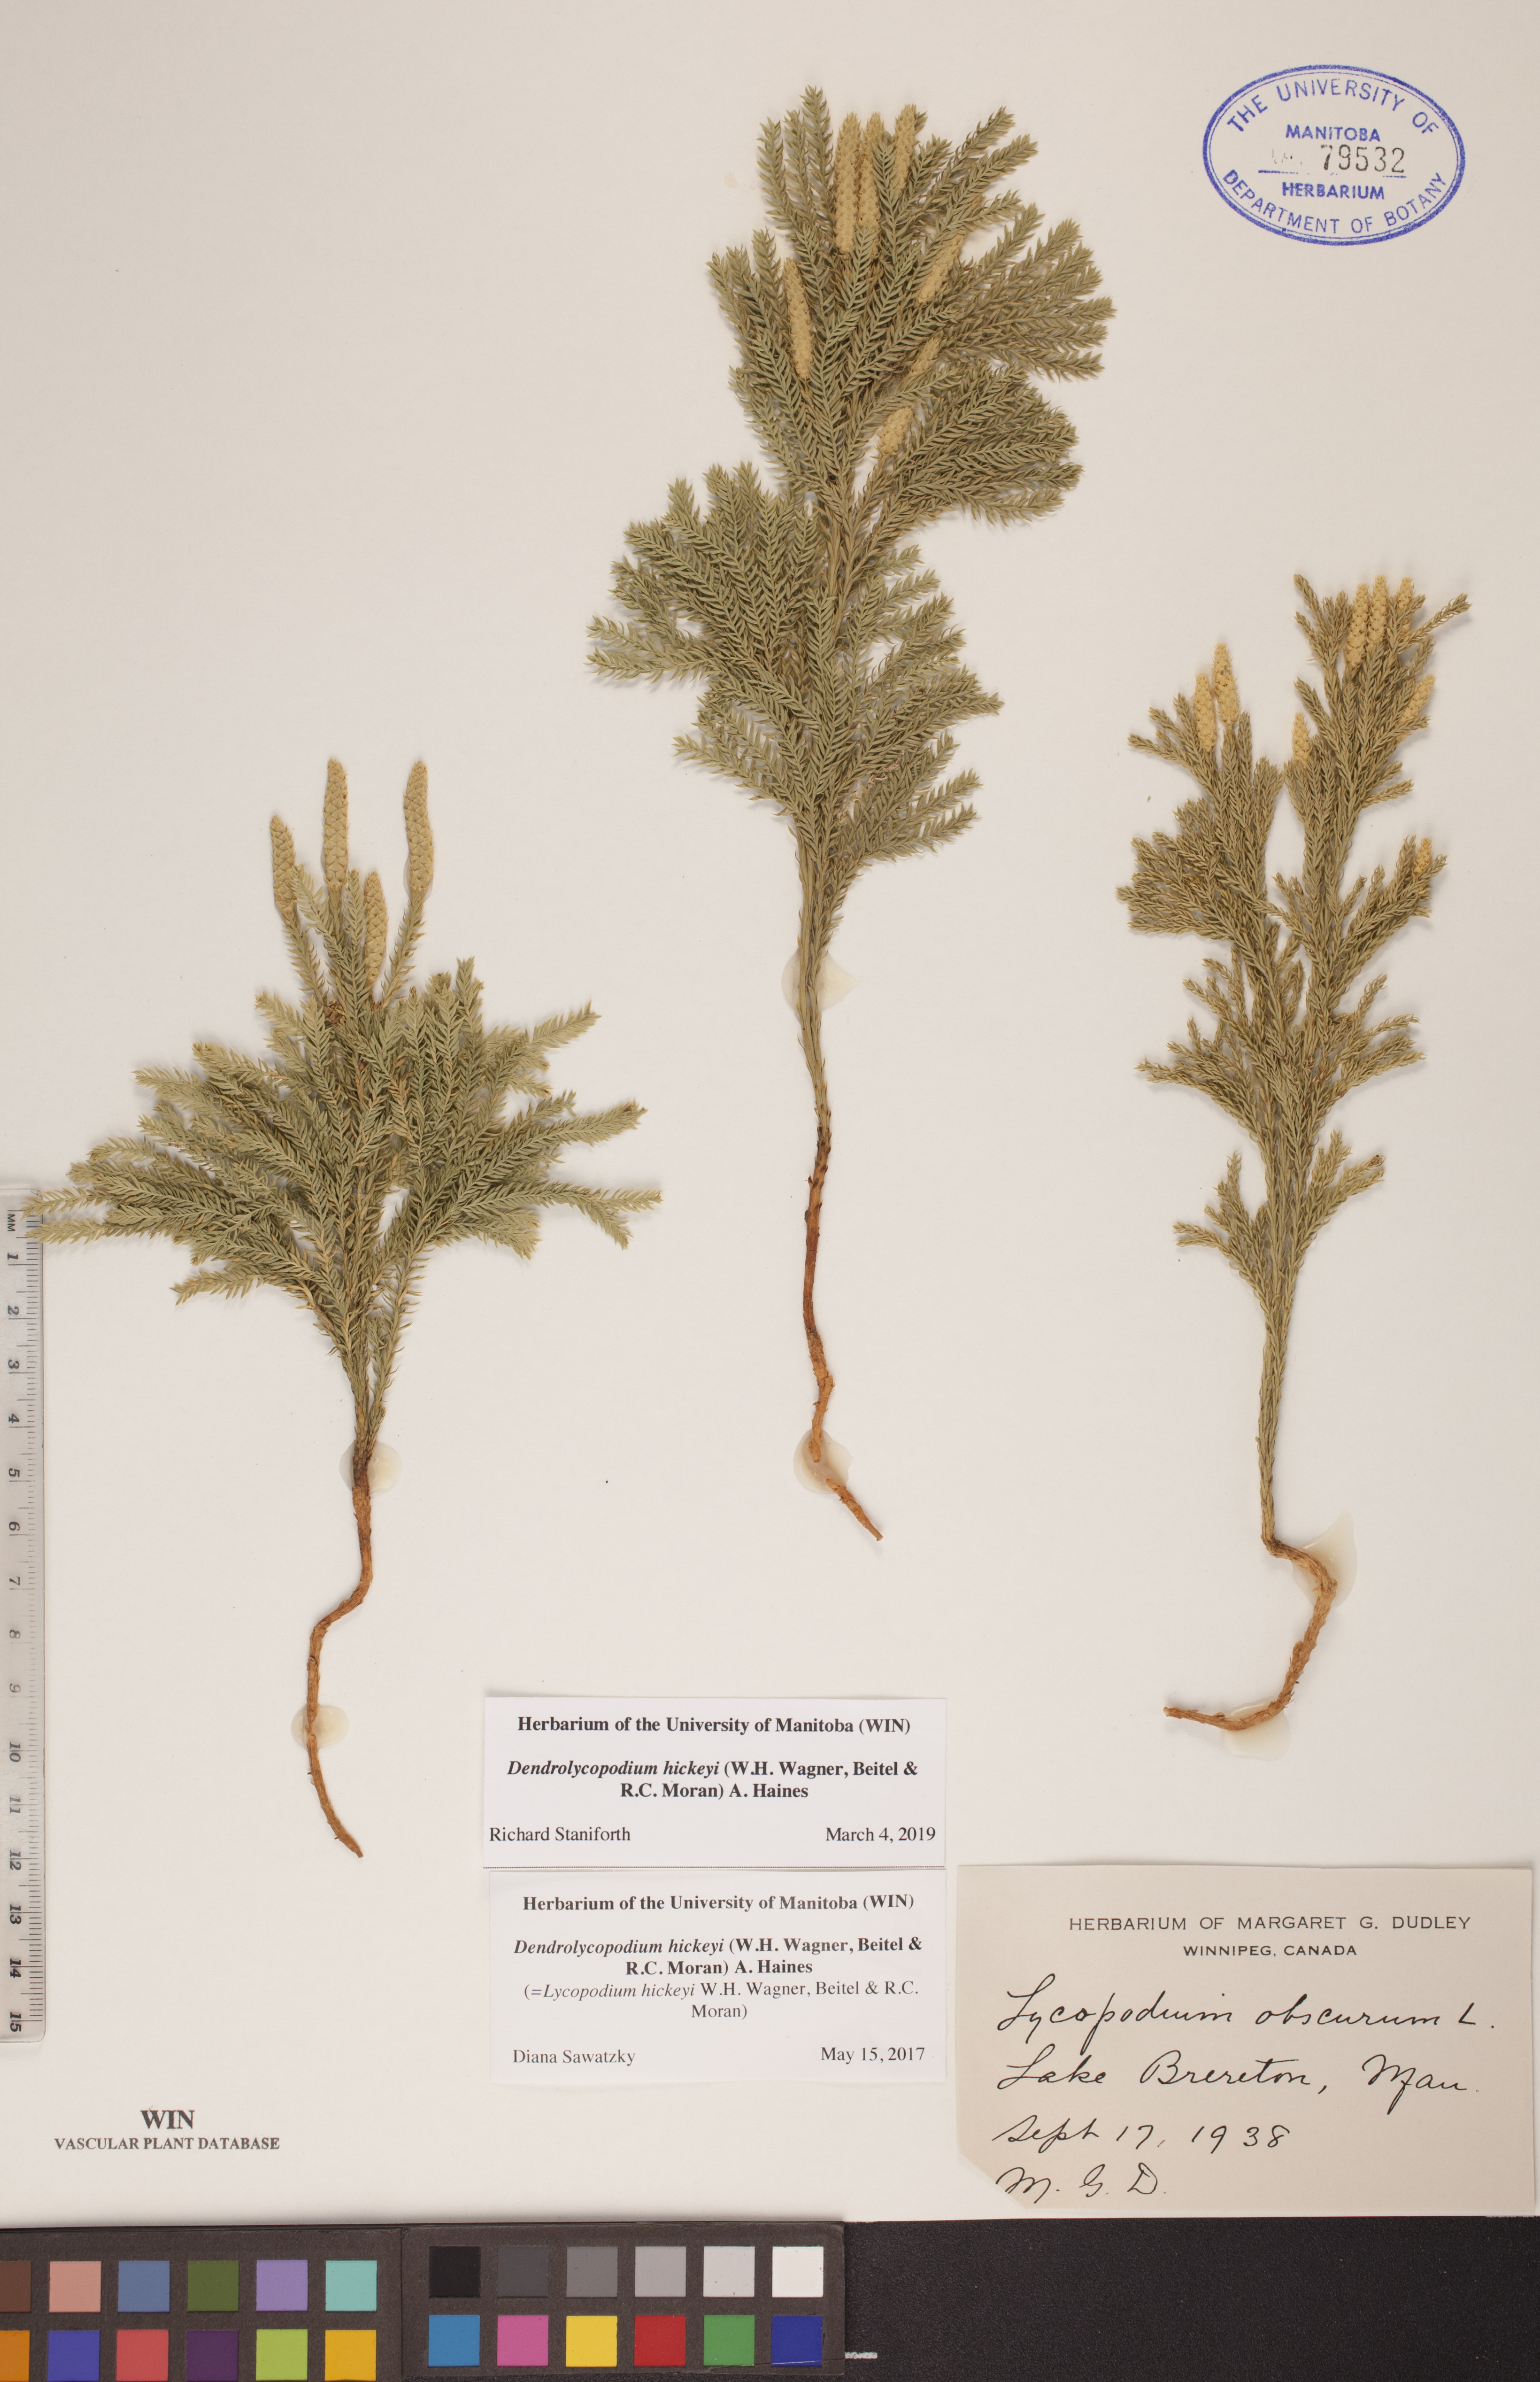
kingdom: Plantae
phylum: Tracheophyta
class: Lycopodiopsida
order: Lycopodiales
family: Lycopodiaceae
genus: Dendrolycopodium
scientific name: Dendrolycopodium hickeyi
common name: Hickey's clubmoss
